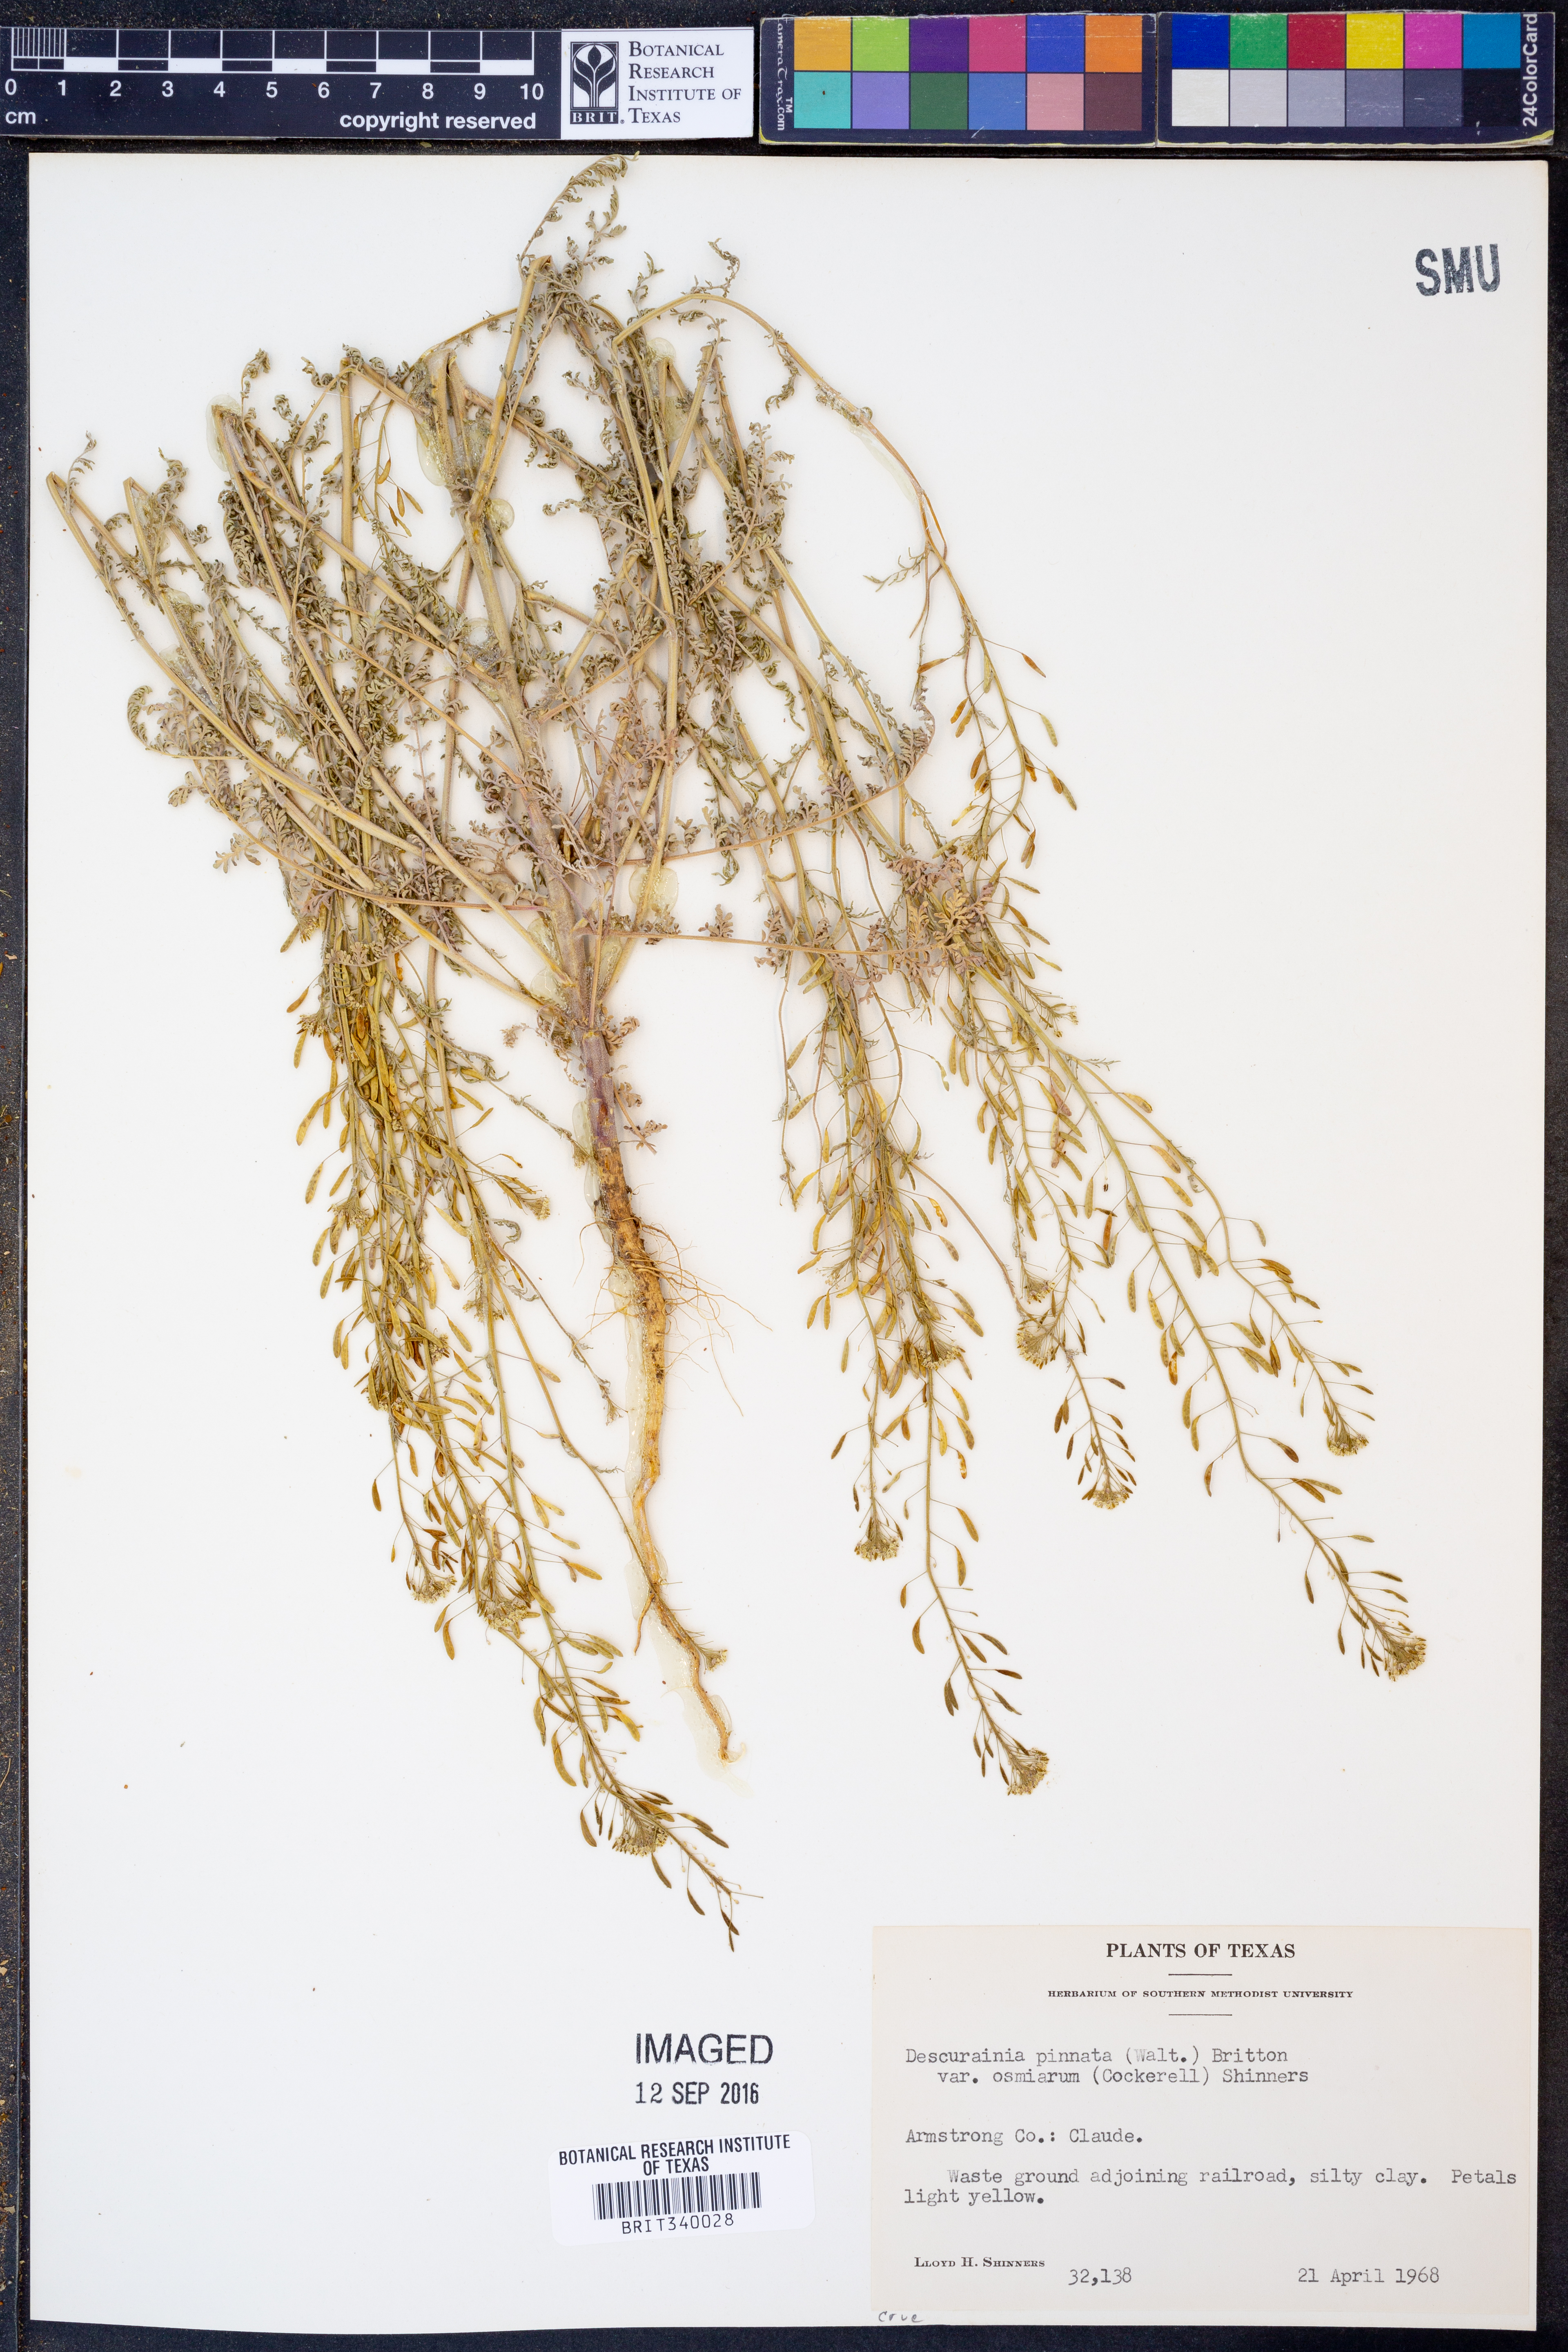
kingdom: Plantae
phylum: Tracheophyta
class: Magnoliopsida
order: Brassicales
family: Brassicaceae
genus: Descurainia
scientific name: Descurainia pinnata
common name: Western tansy mustard
